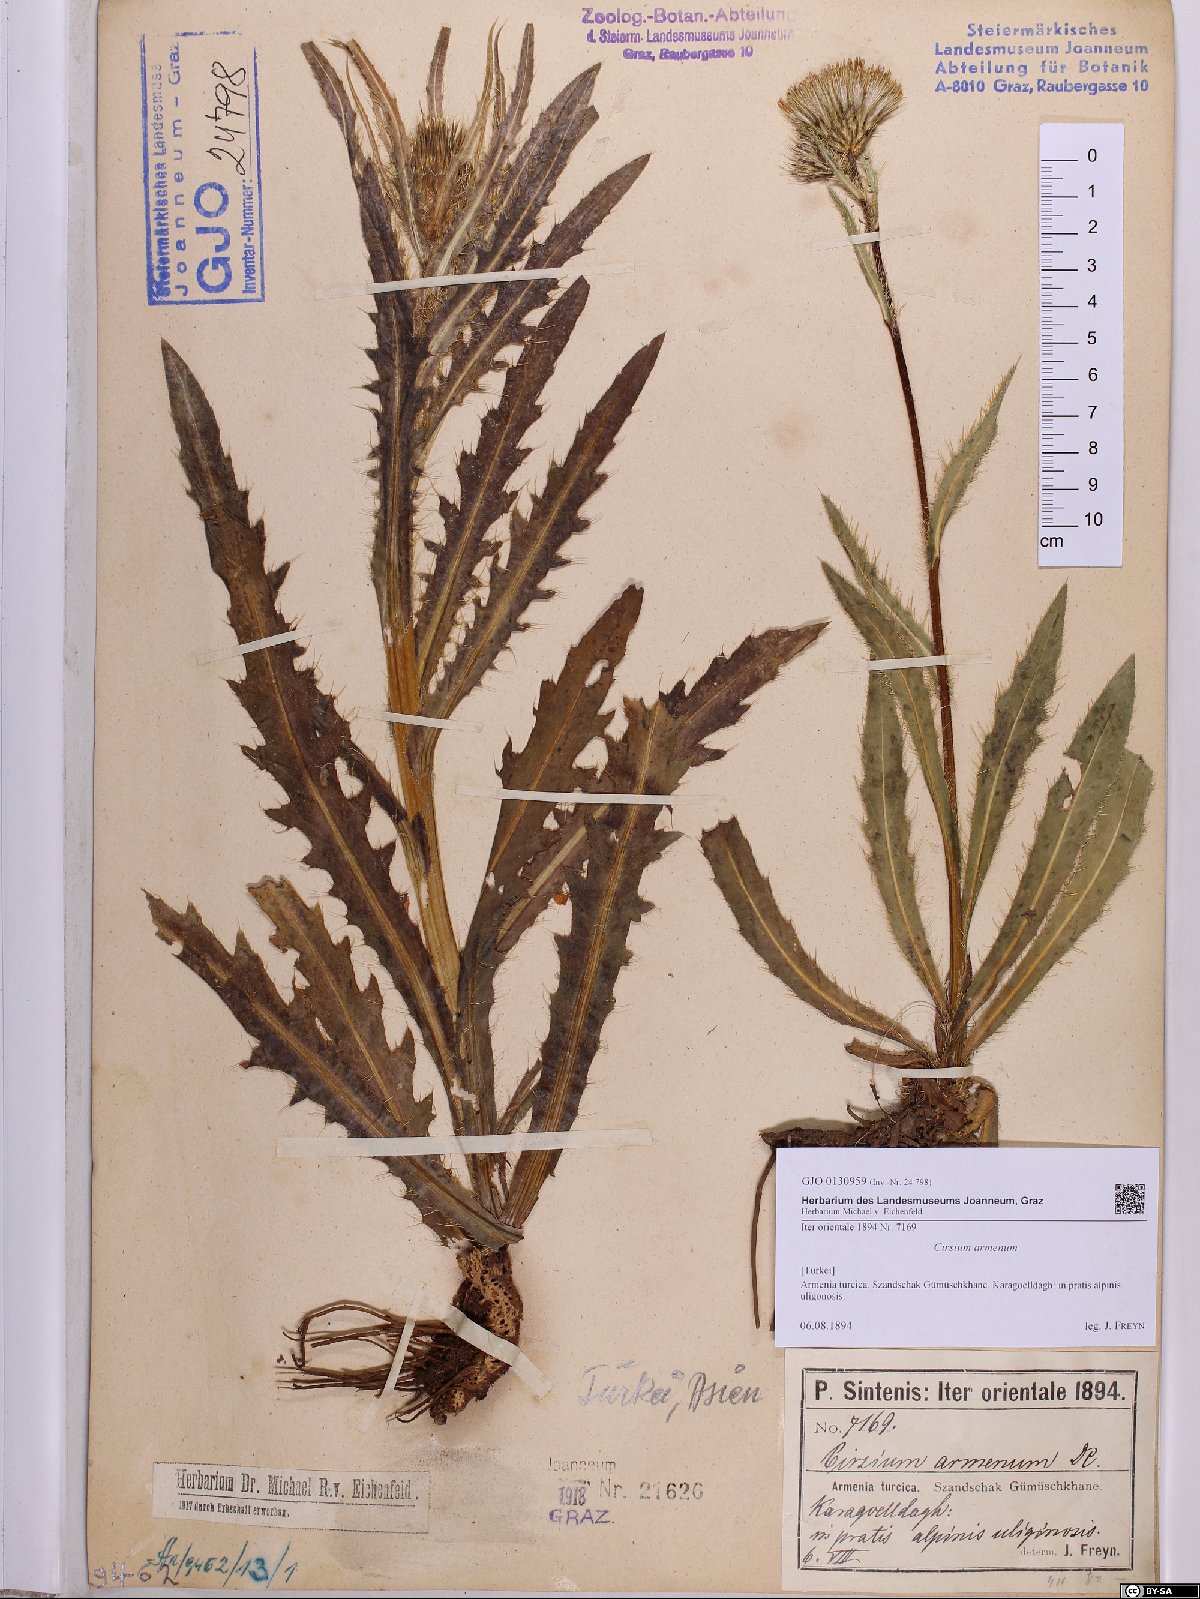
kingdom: Plantae
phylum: Tracheophyta
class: Magnoliopsida
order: Asterales
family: Asteraceae
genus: Cirsium
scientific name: Cirsium simplex
